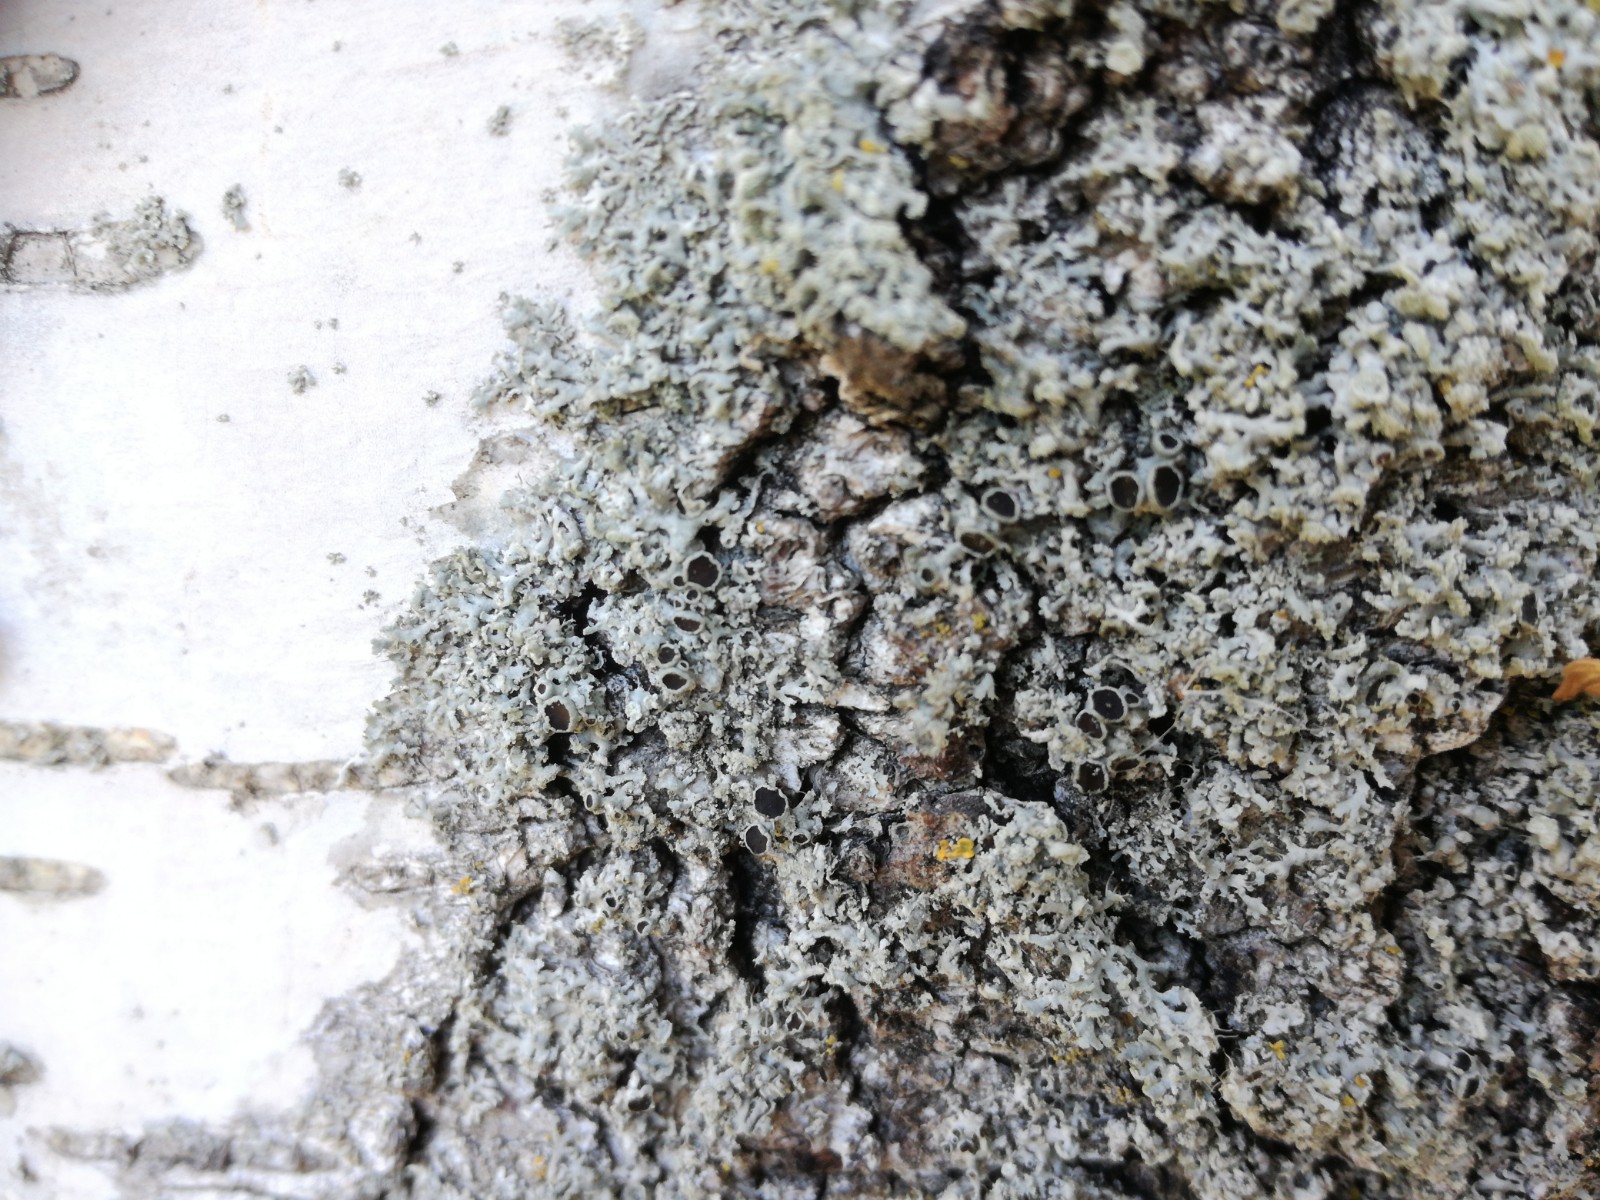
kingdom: Fungi
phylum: Ascomycota
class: Lecanoromycetes
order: Caliciales
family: Physciaceae
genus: Physcia
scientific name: Physcia tenella
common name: spæd rosetlav
